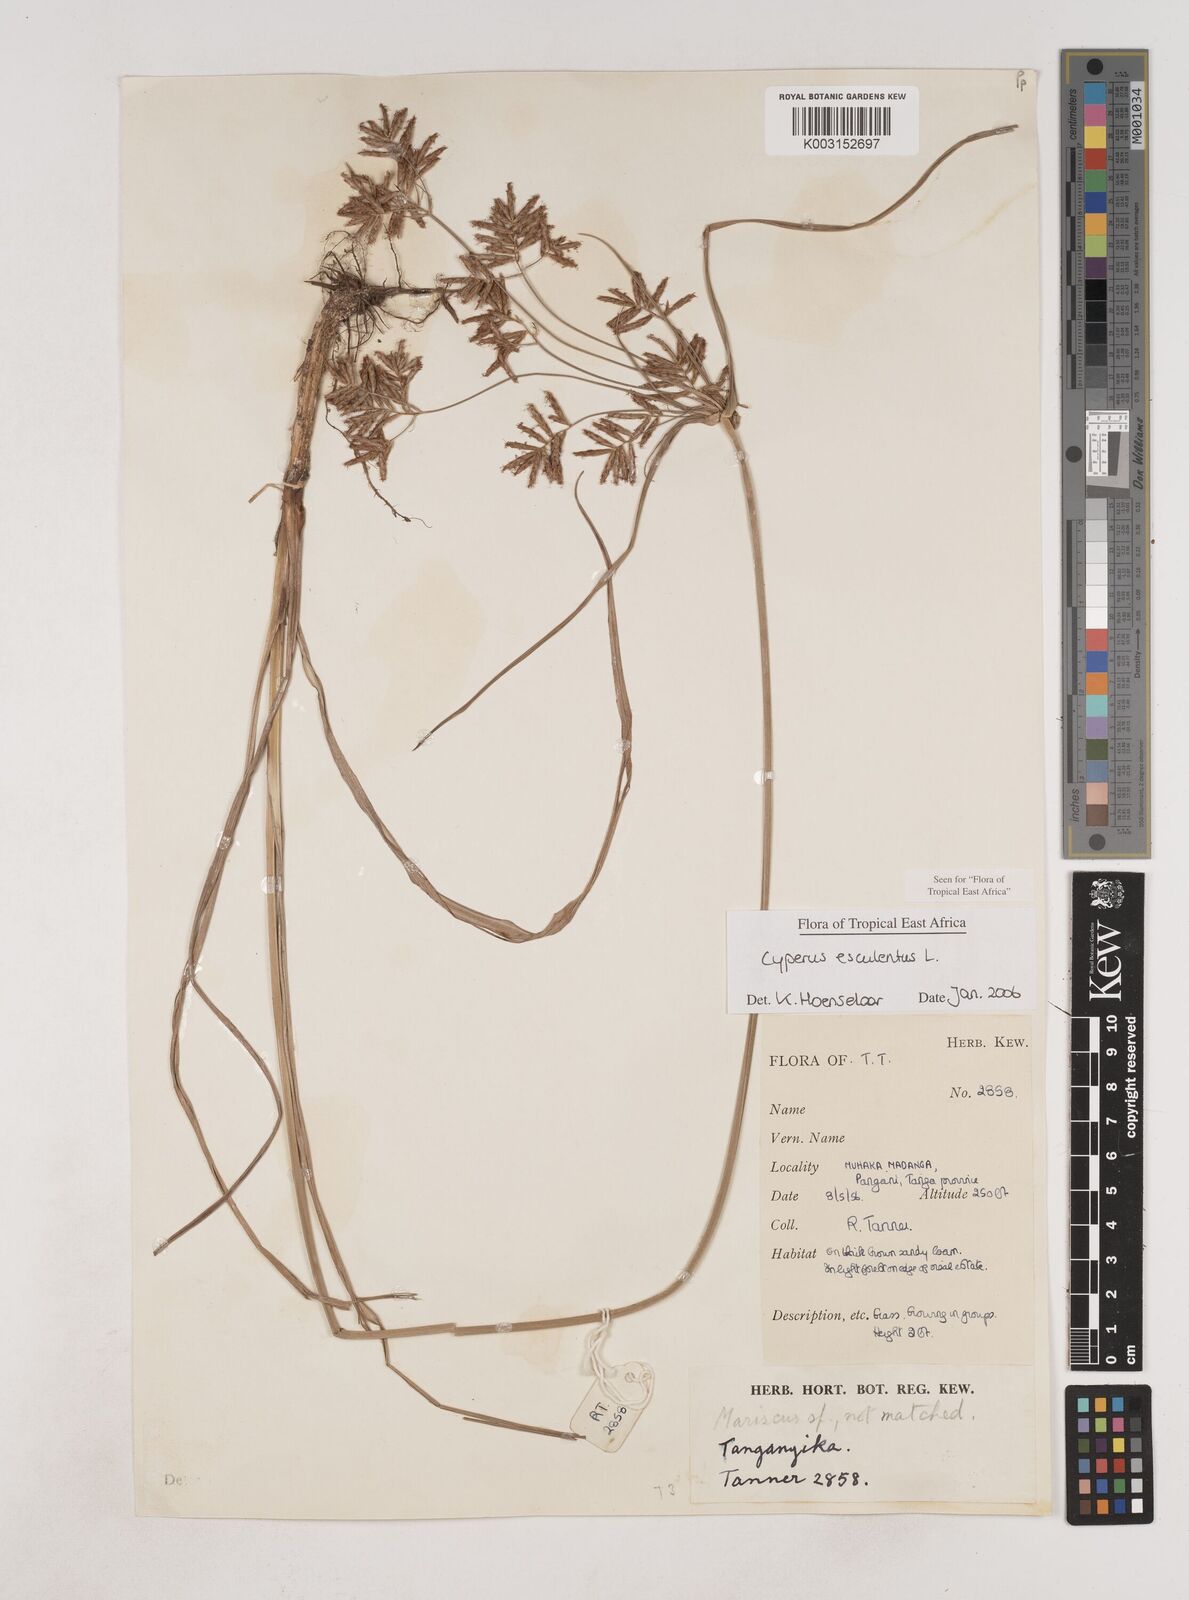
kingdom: Plantae
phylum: Tracheophyta
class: Liliopsida
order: Poales
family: Cyperaceae
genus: Cyperus
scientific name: Cyperus esculentus
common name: Yellow nutsedge
